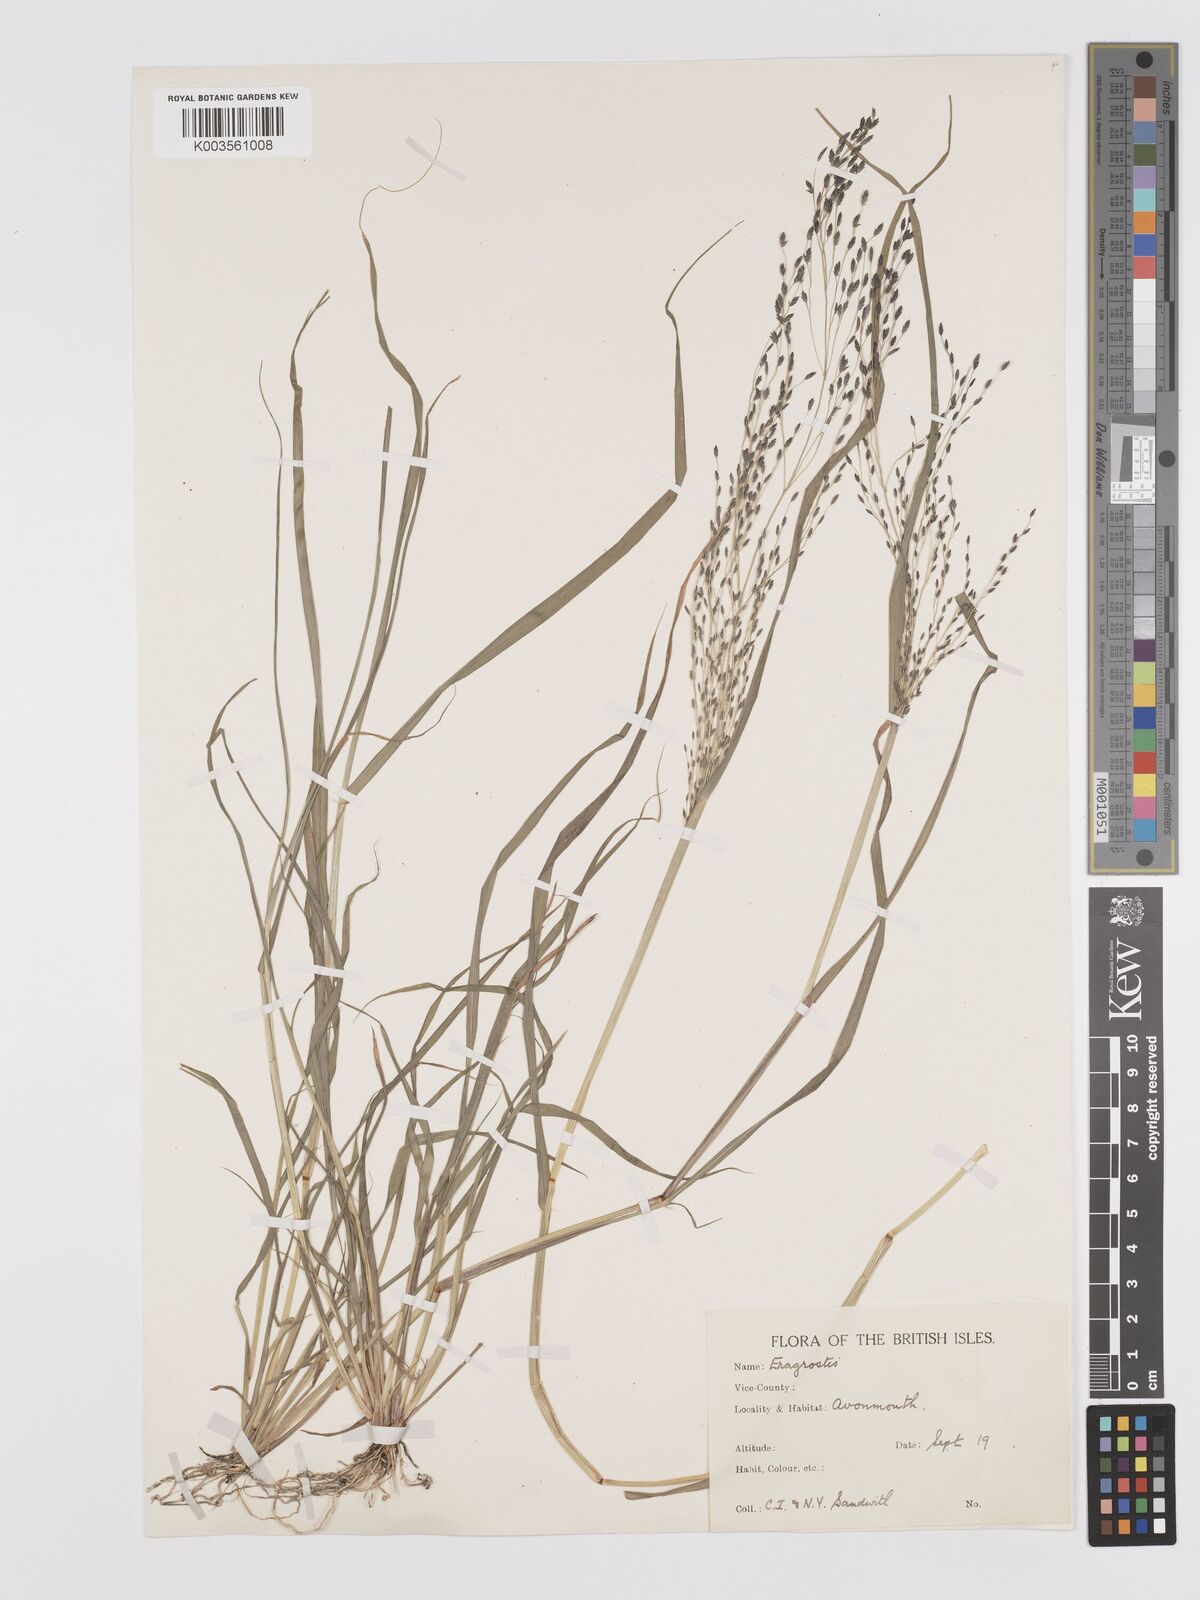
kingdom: Plantae
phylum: Tracheophyta
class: Liliopsida
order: Poales
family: Poaceae
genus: Eragrostis
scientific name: Eragrostis
